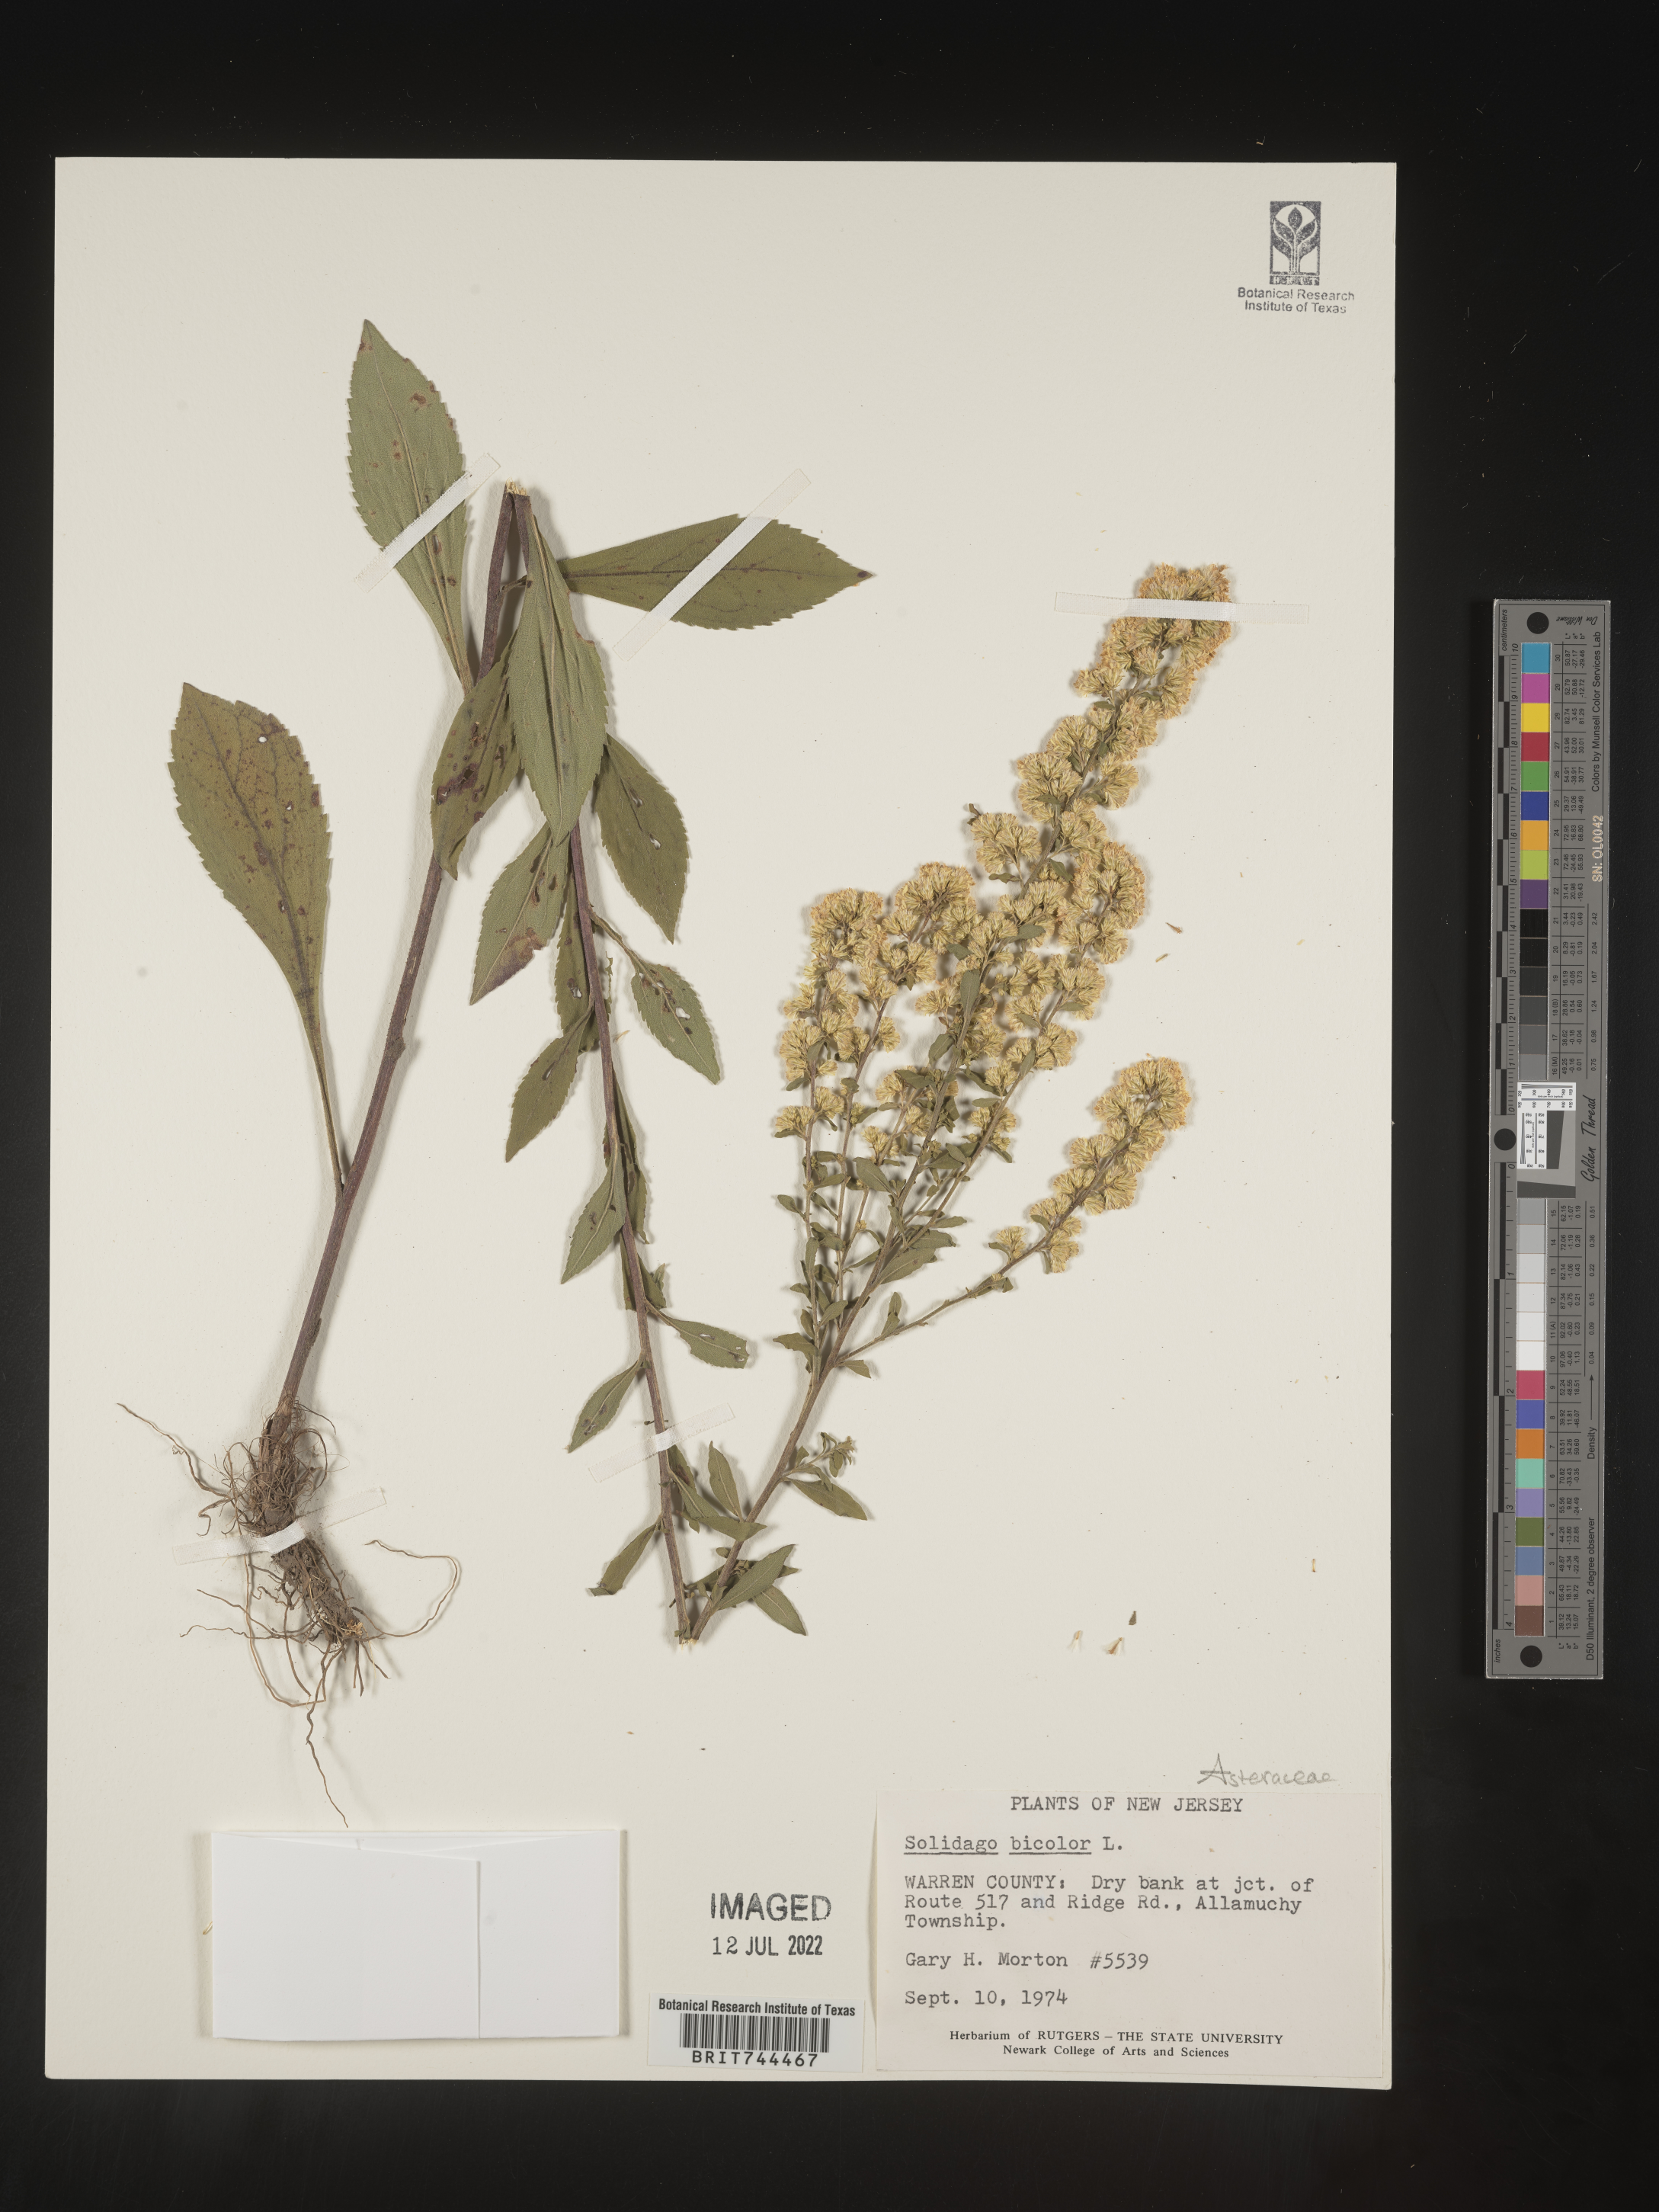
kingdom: Plantae
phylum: Tracheophyta
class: Magnoliopsida
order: Asterales
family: Asteraceae
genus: Solidago
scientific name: Solidago bicolor
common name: Silverrod
